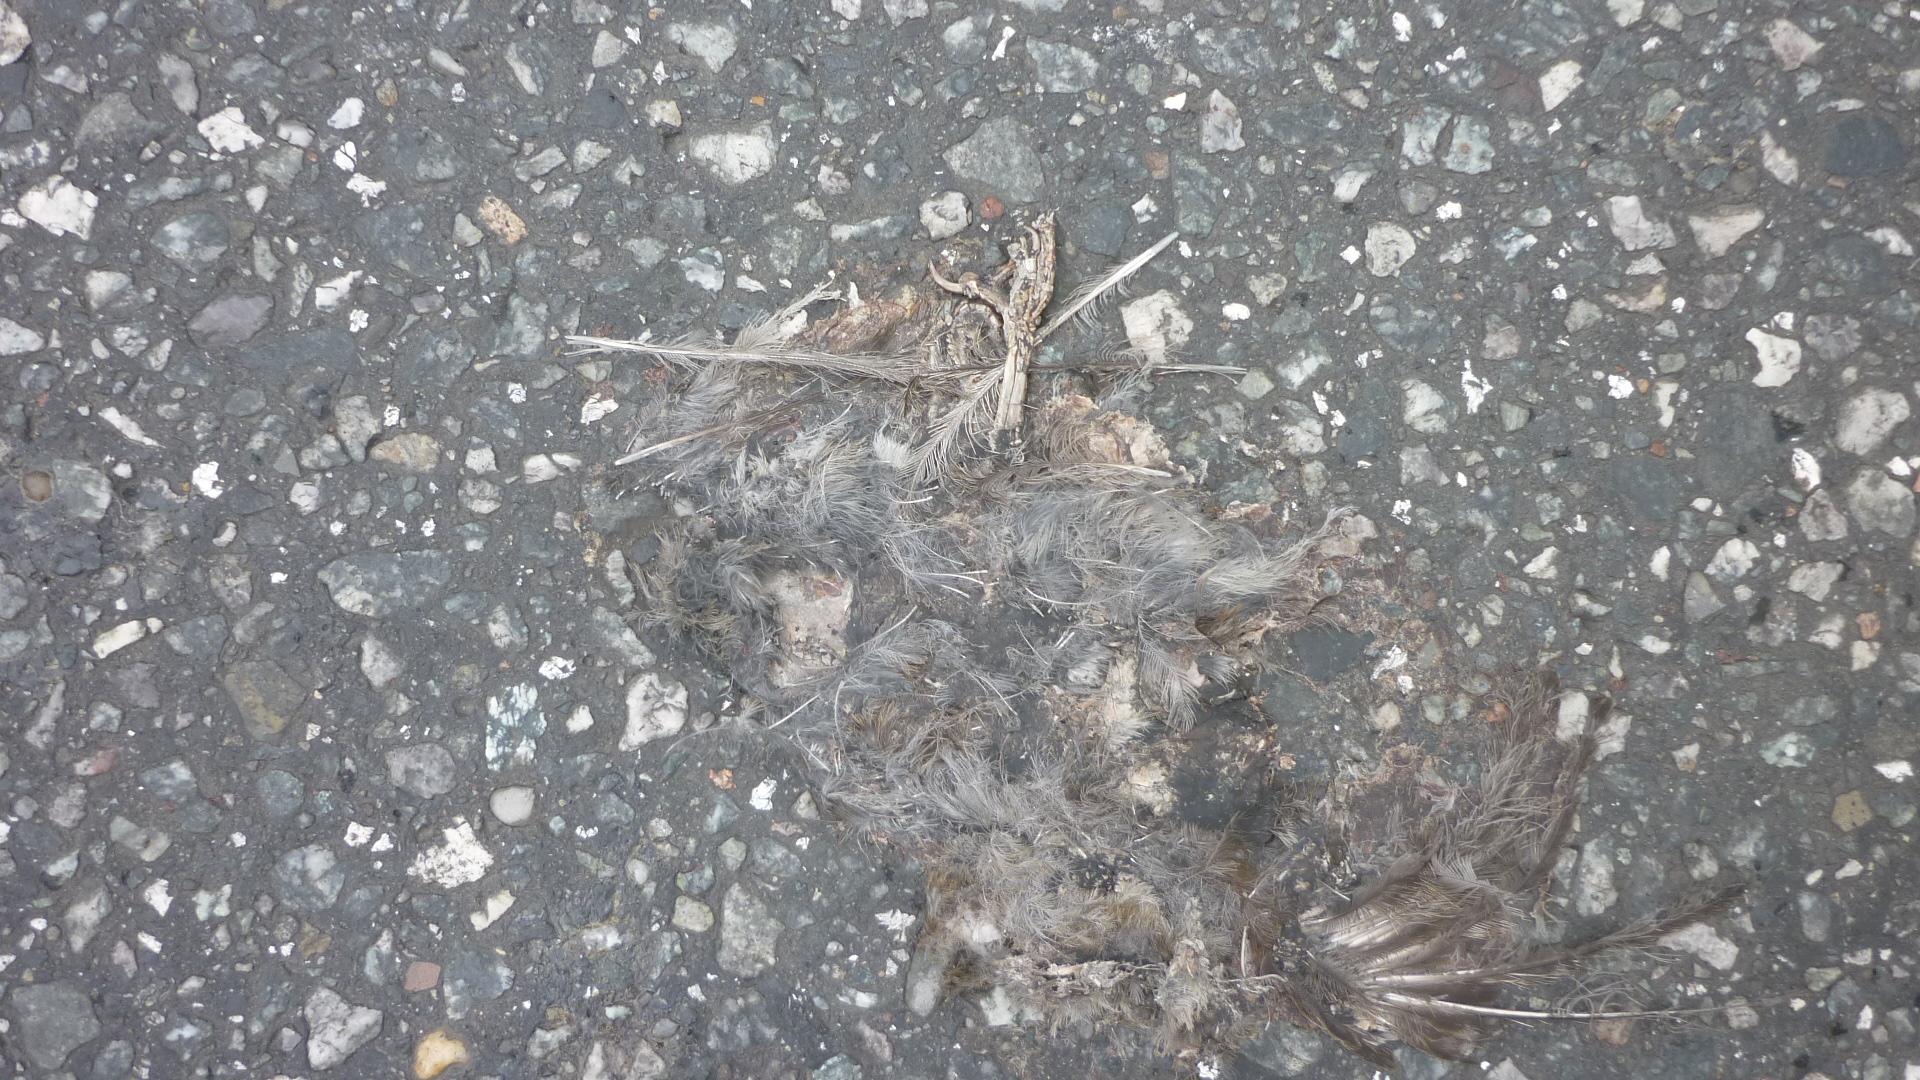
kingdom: Animalia
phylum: Chordata
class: Aves
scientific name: Aves
